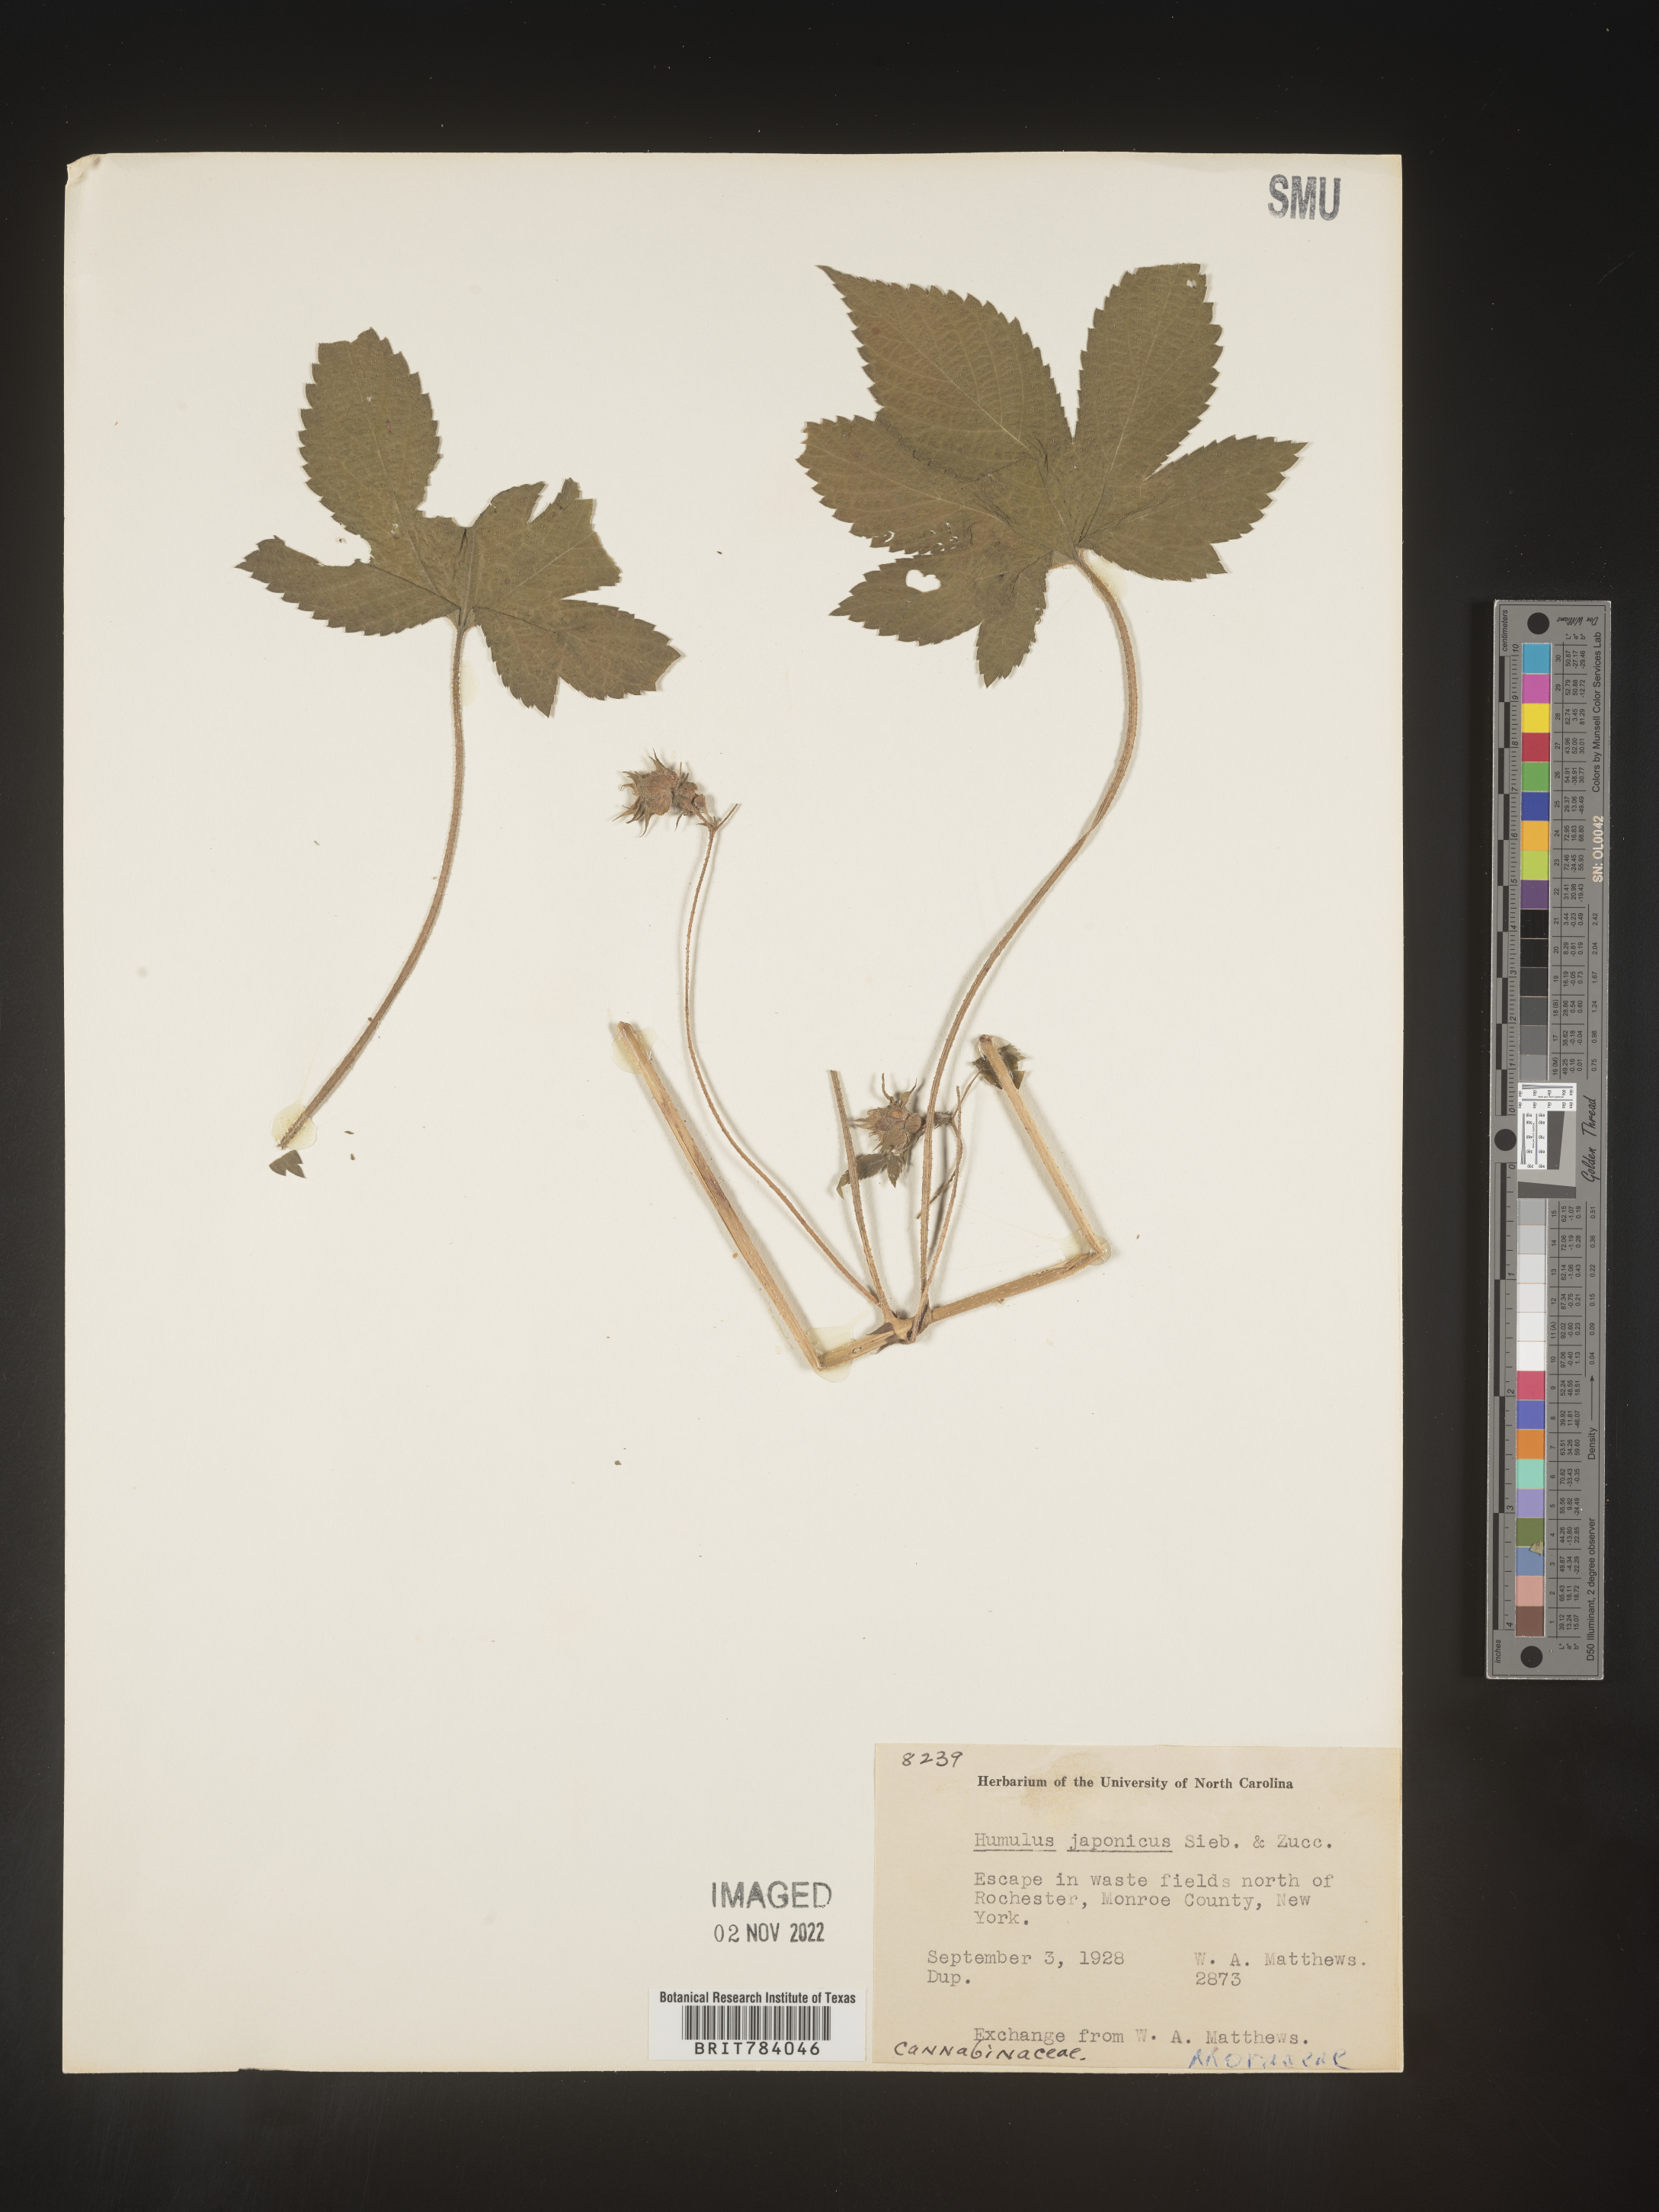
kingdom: Plantae
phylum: Tracheophyta
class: Magnoliopsida
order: Rosales
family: Cannabaceae
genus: Humulus
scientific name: Humulus scandens
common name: Japanese hop
